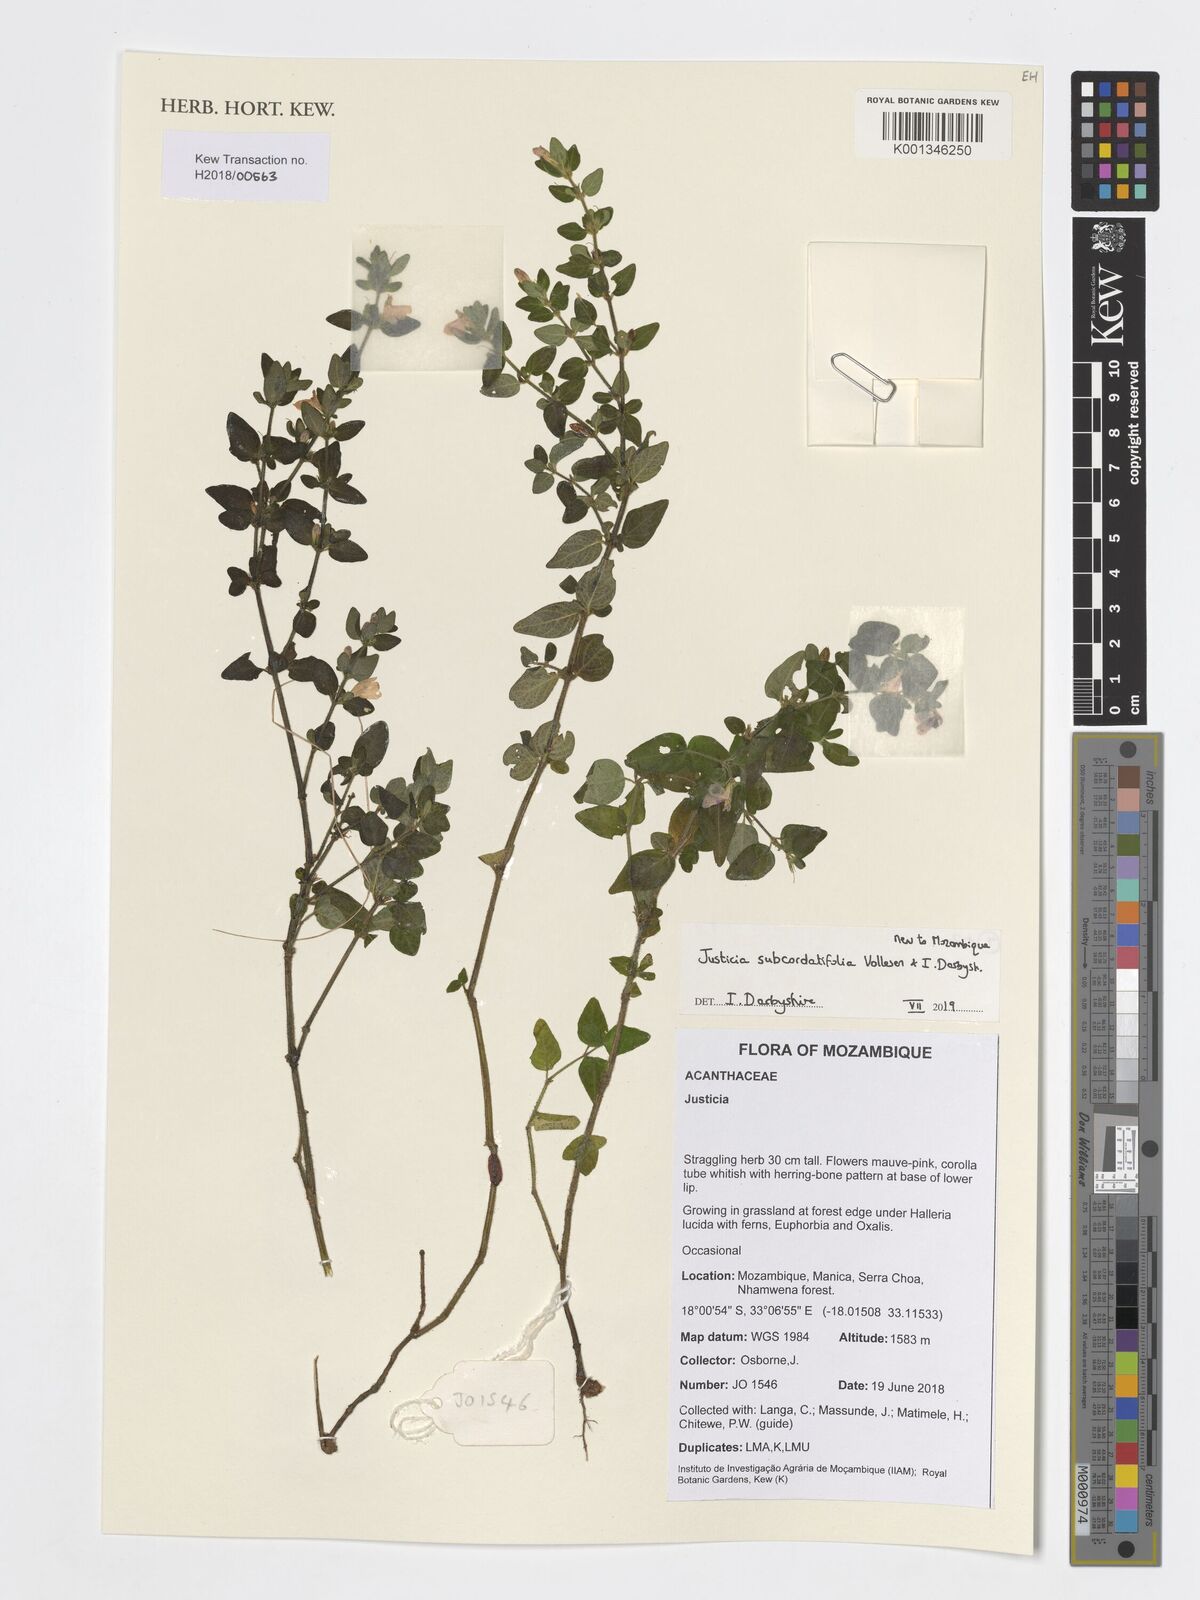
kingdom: Plantae
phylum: Tracheophyta
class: Magnoliopsida
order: Lamiales
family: Acanthaceae
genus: Justicia
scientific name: Justicia subcordatifolia
